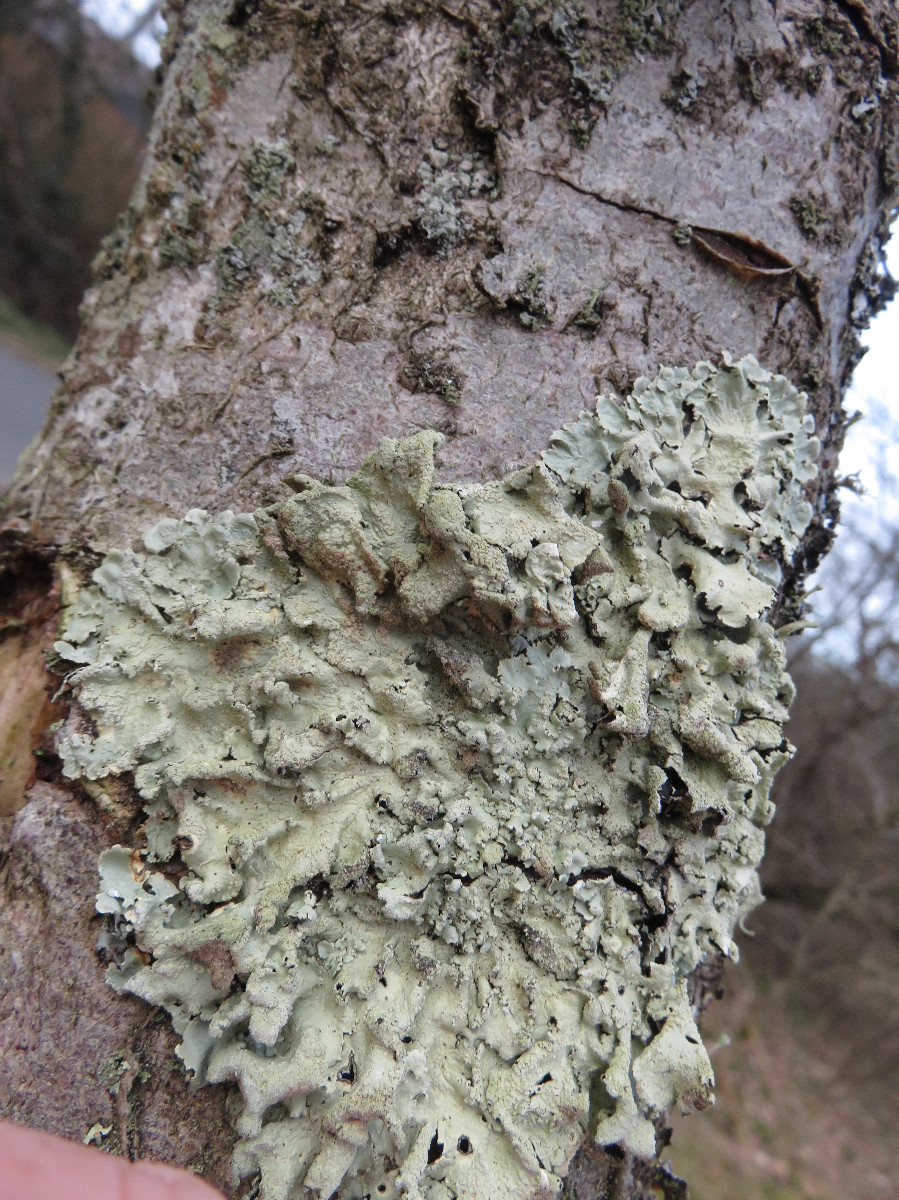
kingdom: Fungi
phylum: Ascomycota
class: Lecanoromycetes
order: Lecanorales
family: Parmeliaceae
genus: Flavoparmelia
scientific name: Flavoparmelia caperata
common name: gulgrøn skållav
